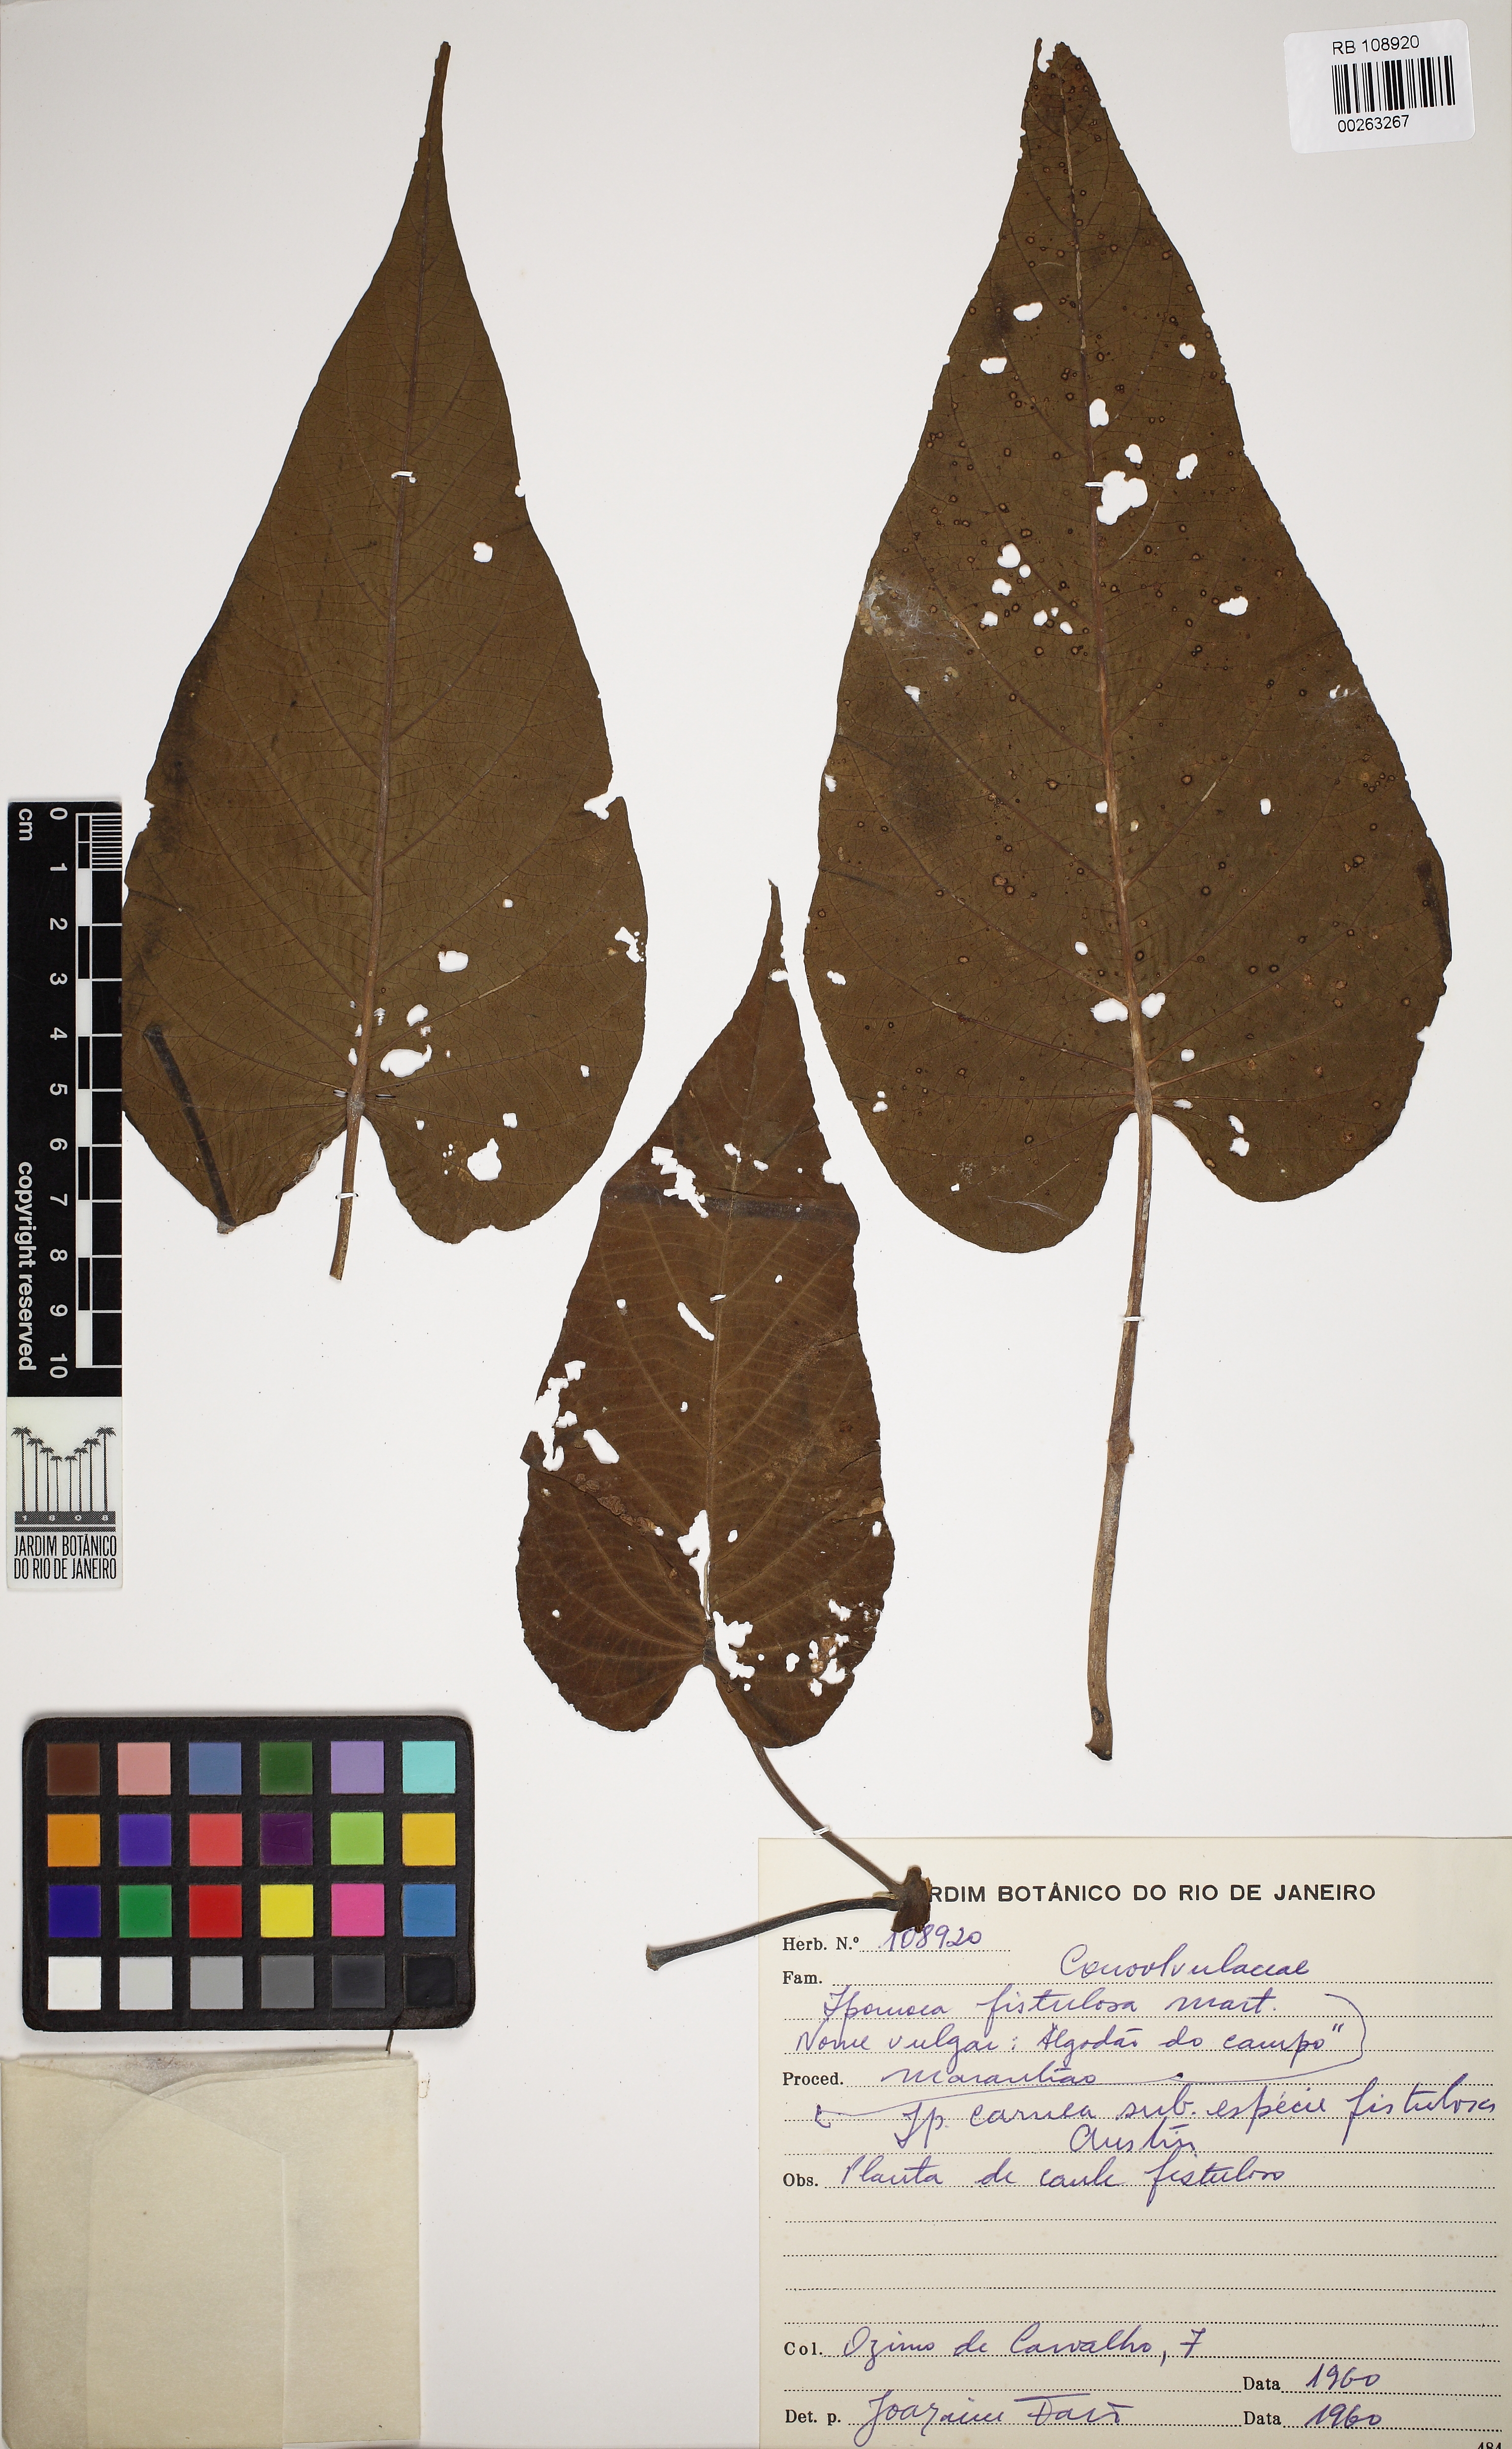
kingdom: Plantae
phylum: Tracheophyta
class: Magnoliopsida
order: Solanales
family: Convolvulaceae
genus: Ipomoea
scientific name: Ipomoea carnea
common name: Morning-glory
